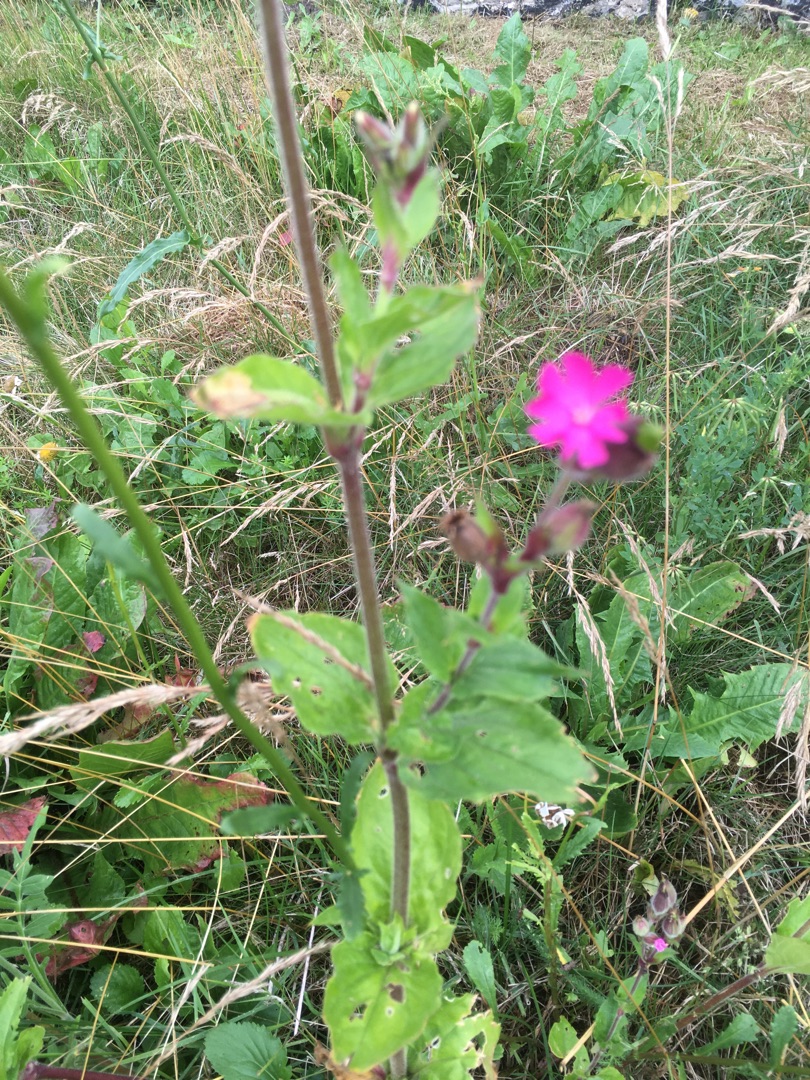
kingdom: Plantae
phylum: Tracheophyta
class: Magnoliopsida
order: Caryophyllales
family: Caryophyllaceae
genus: Silene
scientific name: Silene dioica
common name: Dagpragtstjerne
